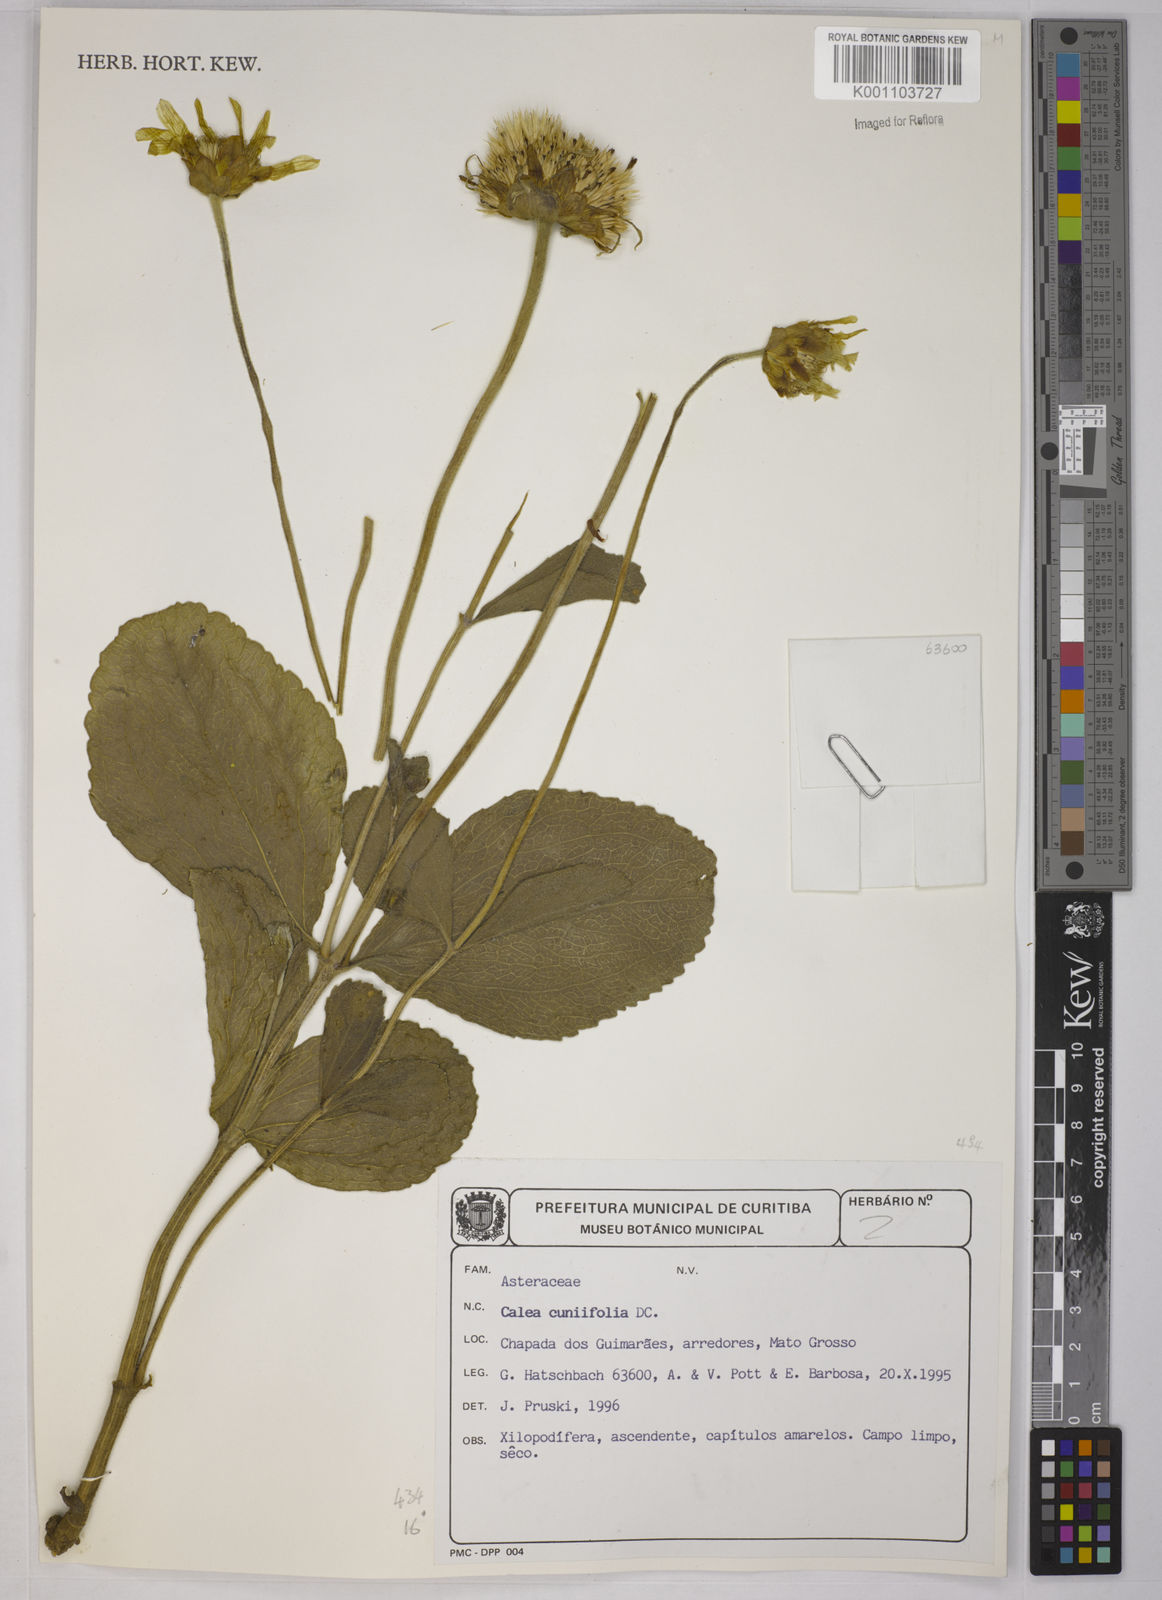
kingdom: Plantae
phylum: Tracheophyta
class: Magnoliopsida
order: Asterales
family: Asteraceae
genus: Calea
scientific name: Calea cuneifolia
